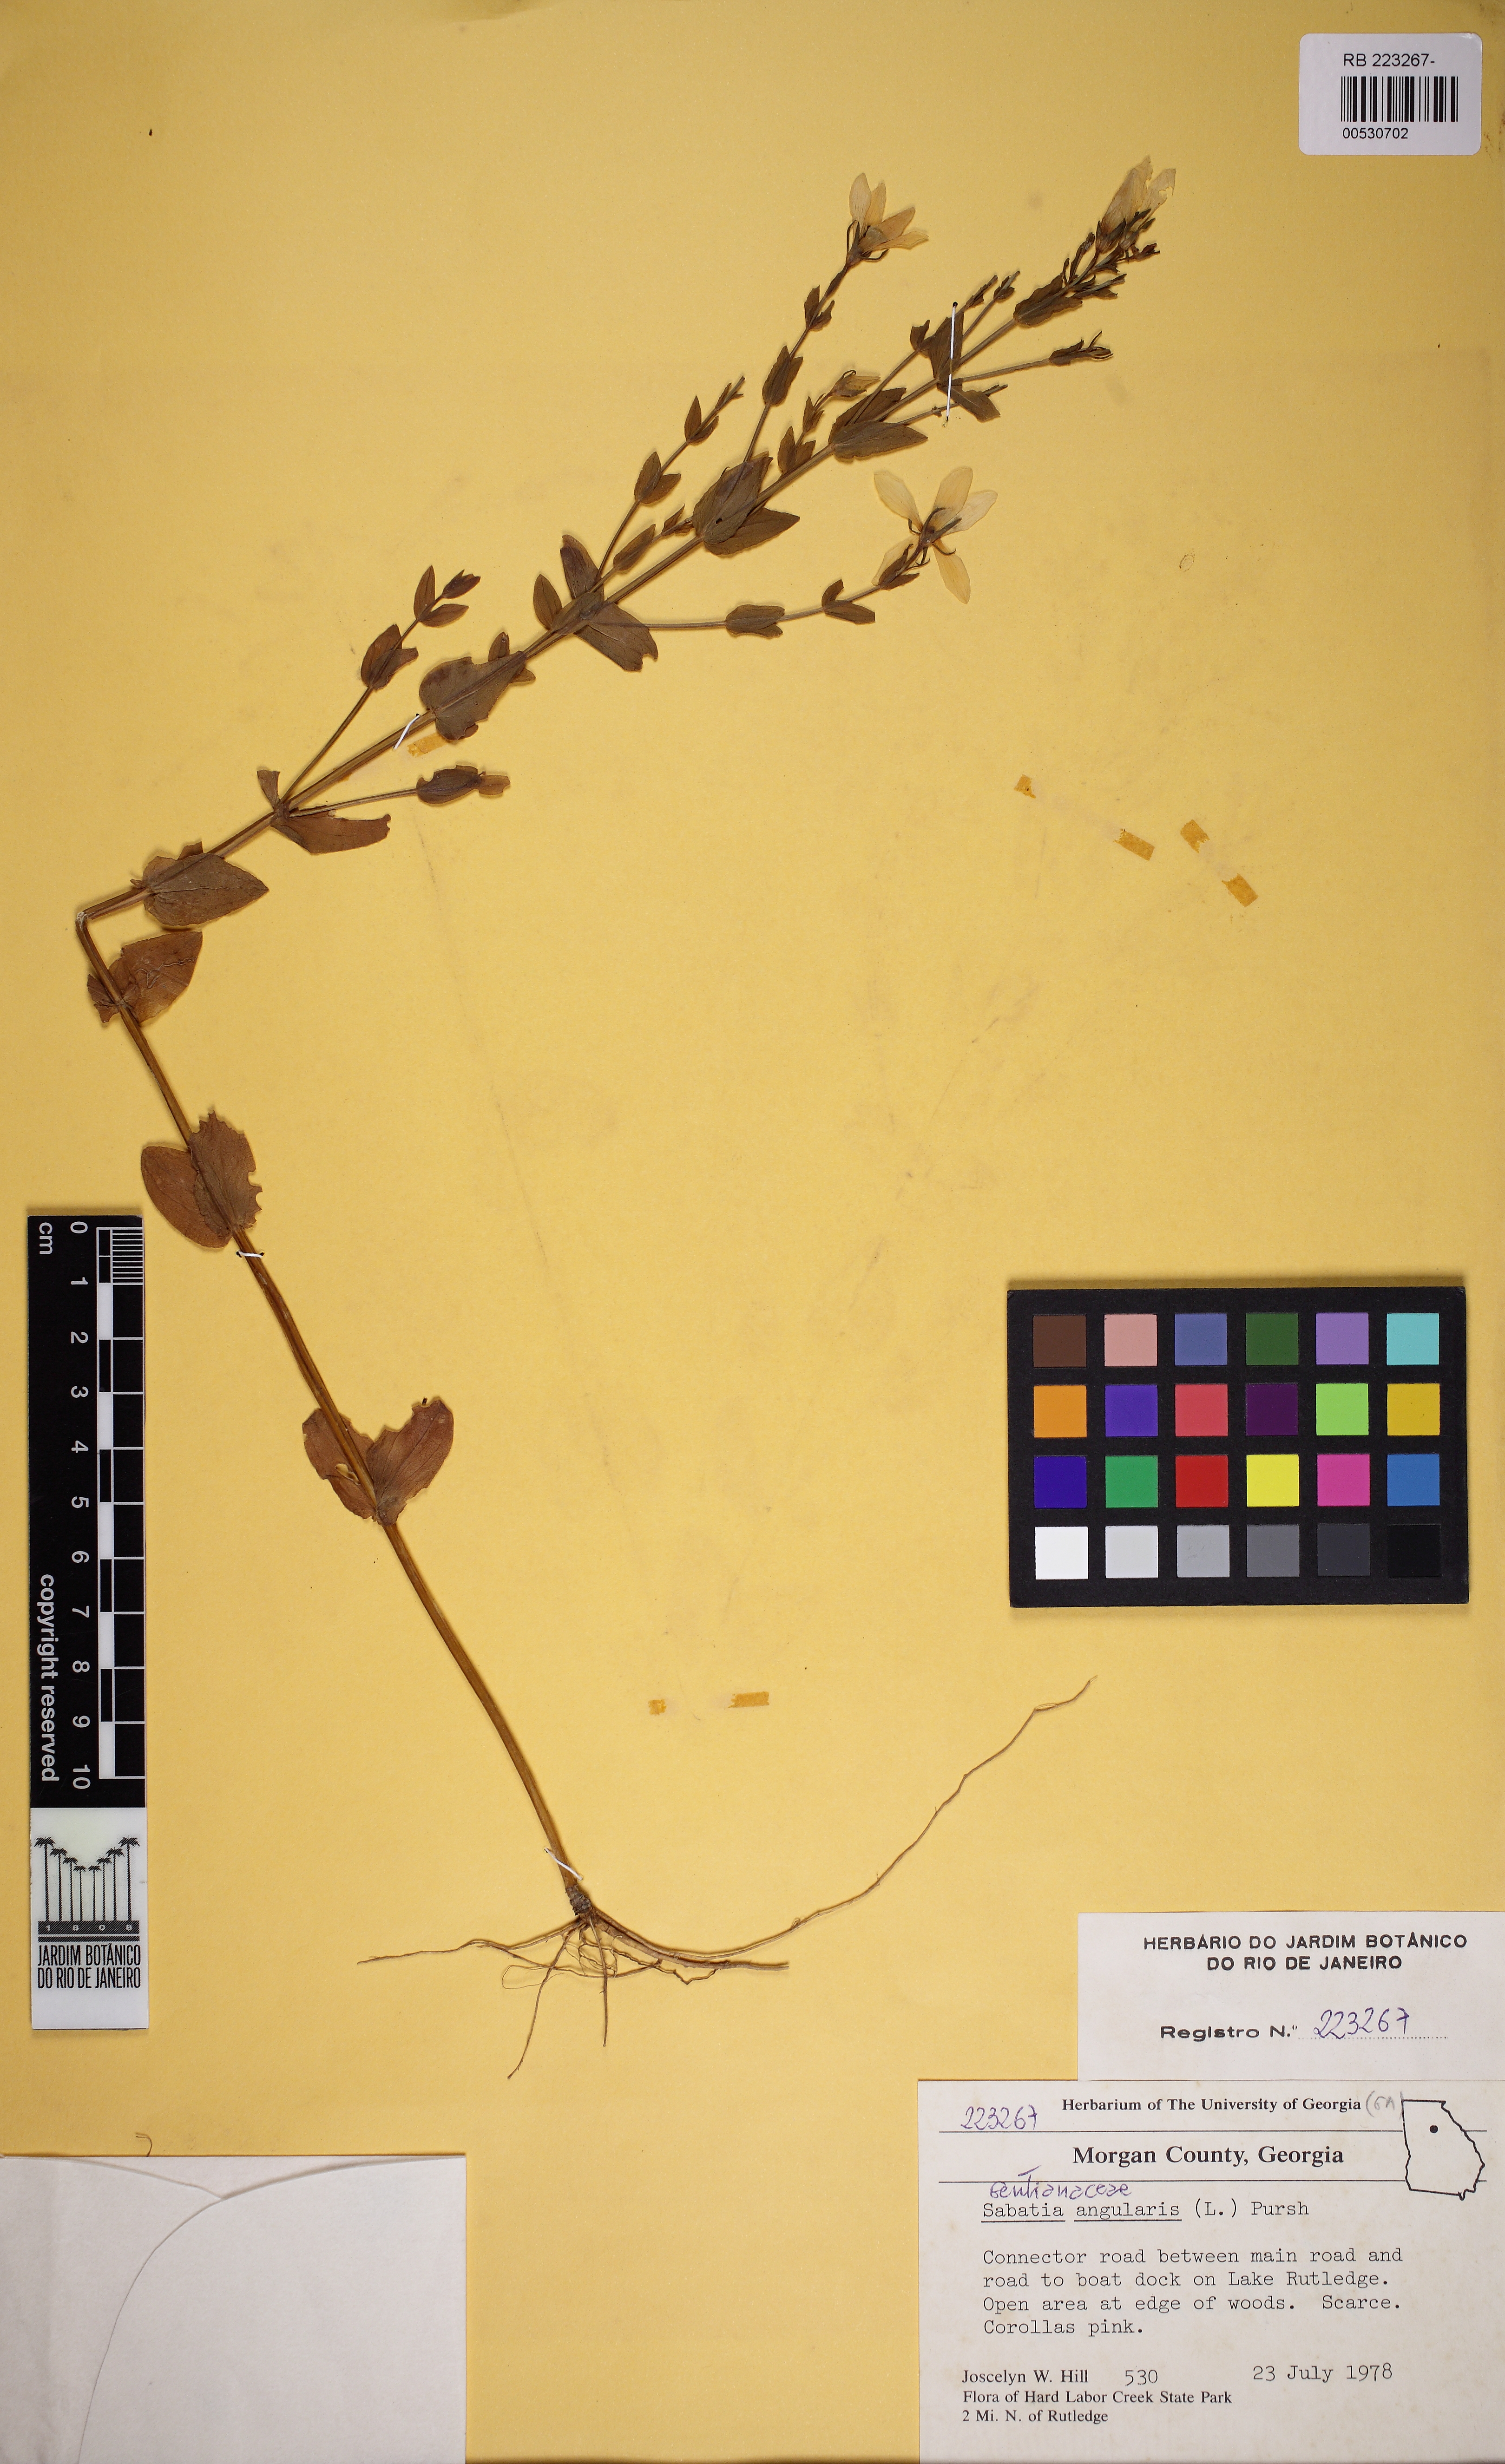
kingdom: Plantae
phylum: Tracheophyta
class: Magnoliopsida
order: Gentianales
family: Gentianaceae
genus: Sabatia
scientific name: Sabatia angularis
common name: Rose-pink
